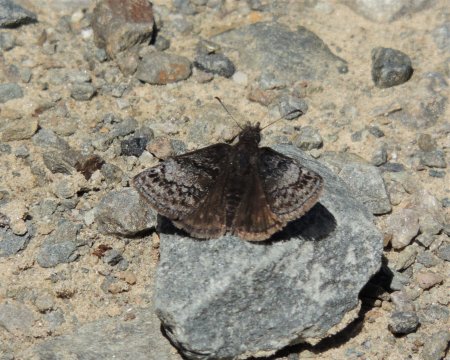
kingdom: Animalia
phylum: Arthropoda
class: Insecta
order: Lepidoptera
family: Hesperiidae
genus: Erynnis
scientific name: Erynnis icelus
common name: Dreamy Duskywing
